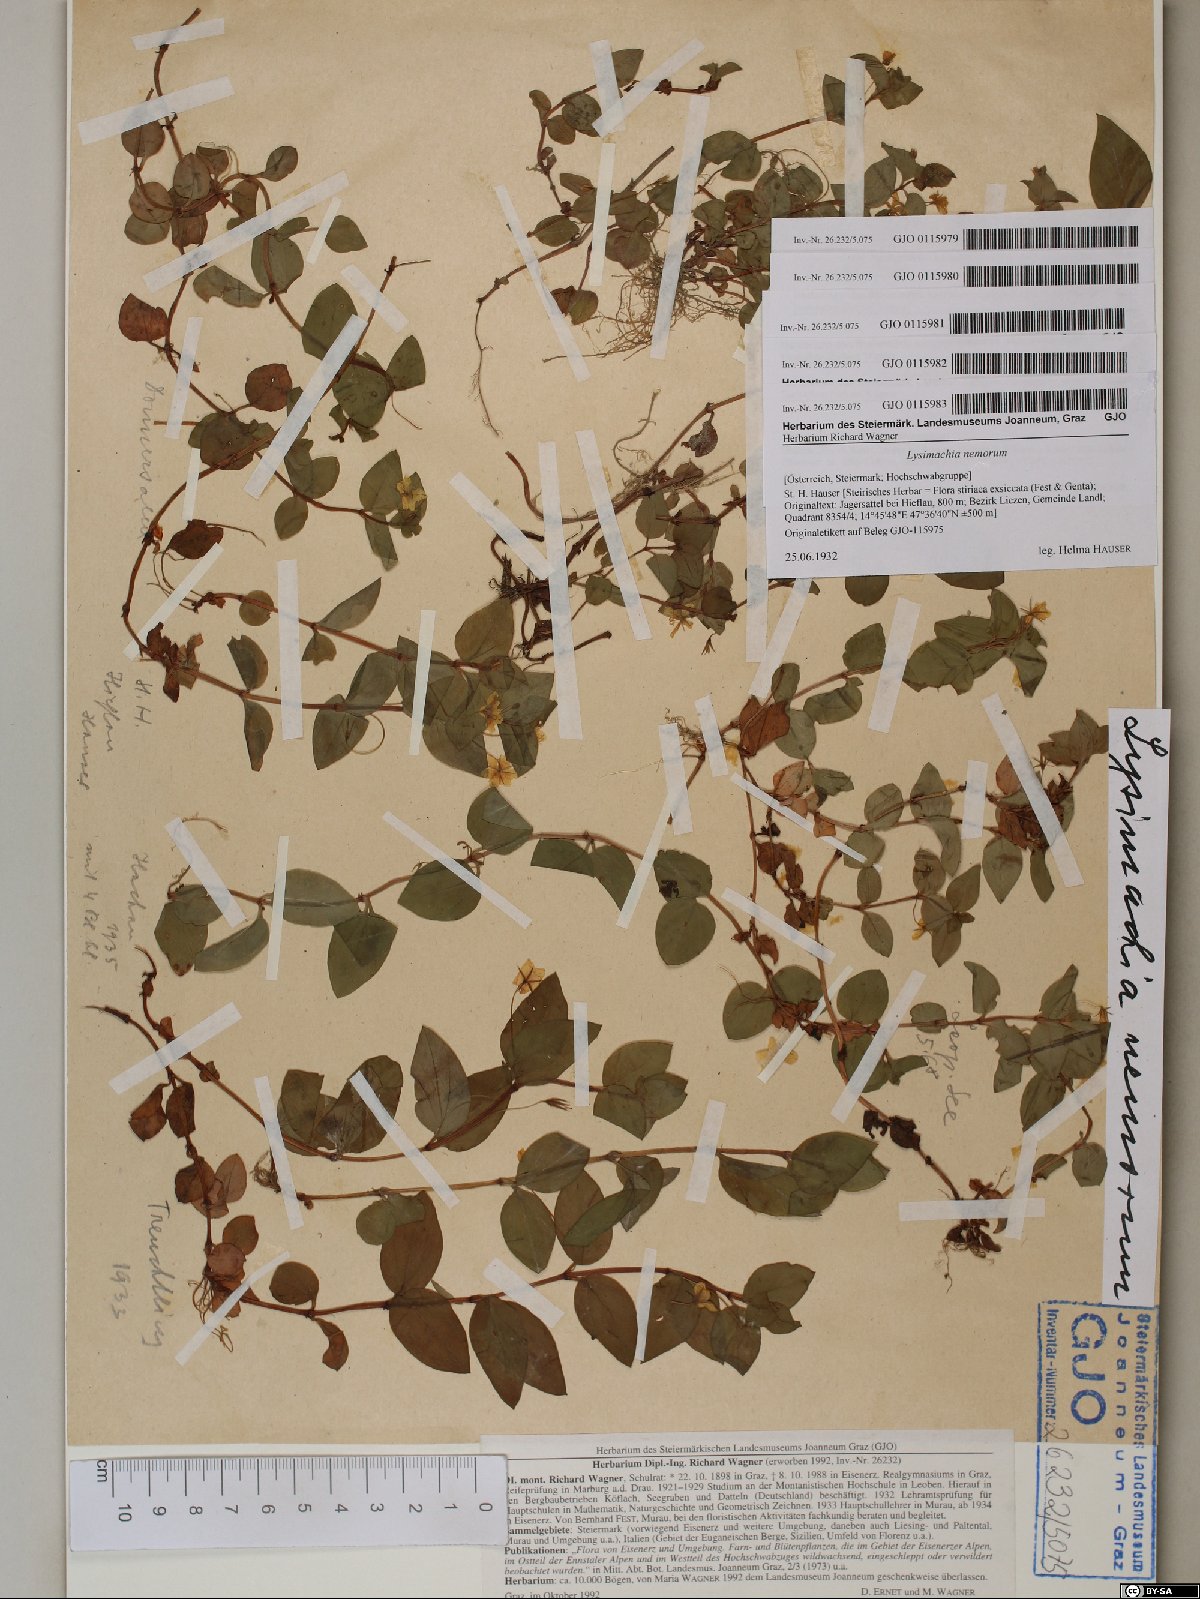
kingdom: Plantae
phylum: Tracheophyta
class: Magnoliopsida
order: Ericales
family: Primulaceae
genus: Lysimachia
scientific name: Lysimachia nemorum
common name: Yellow pimpernel
